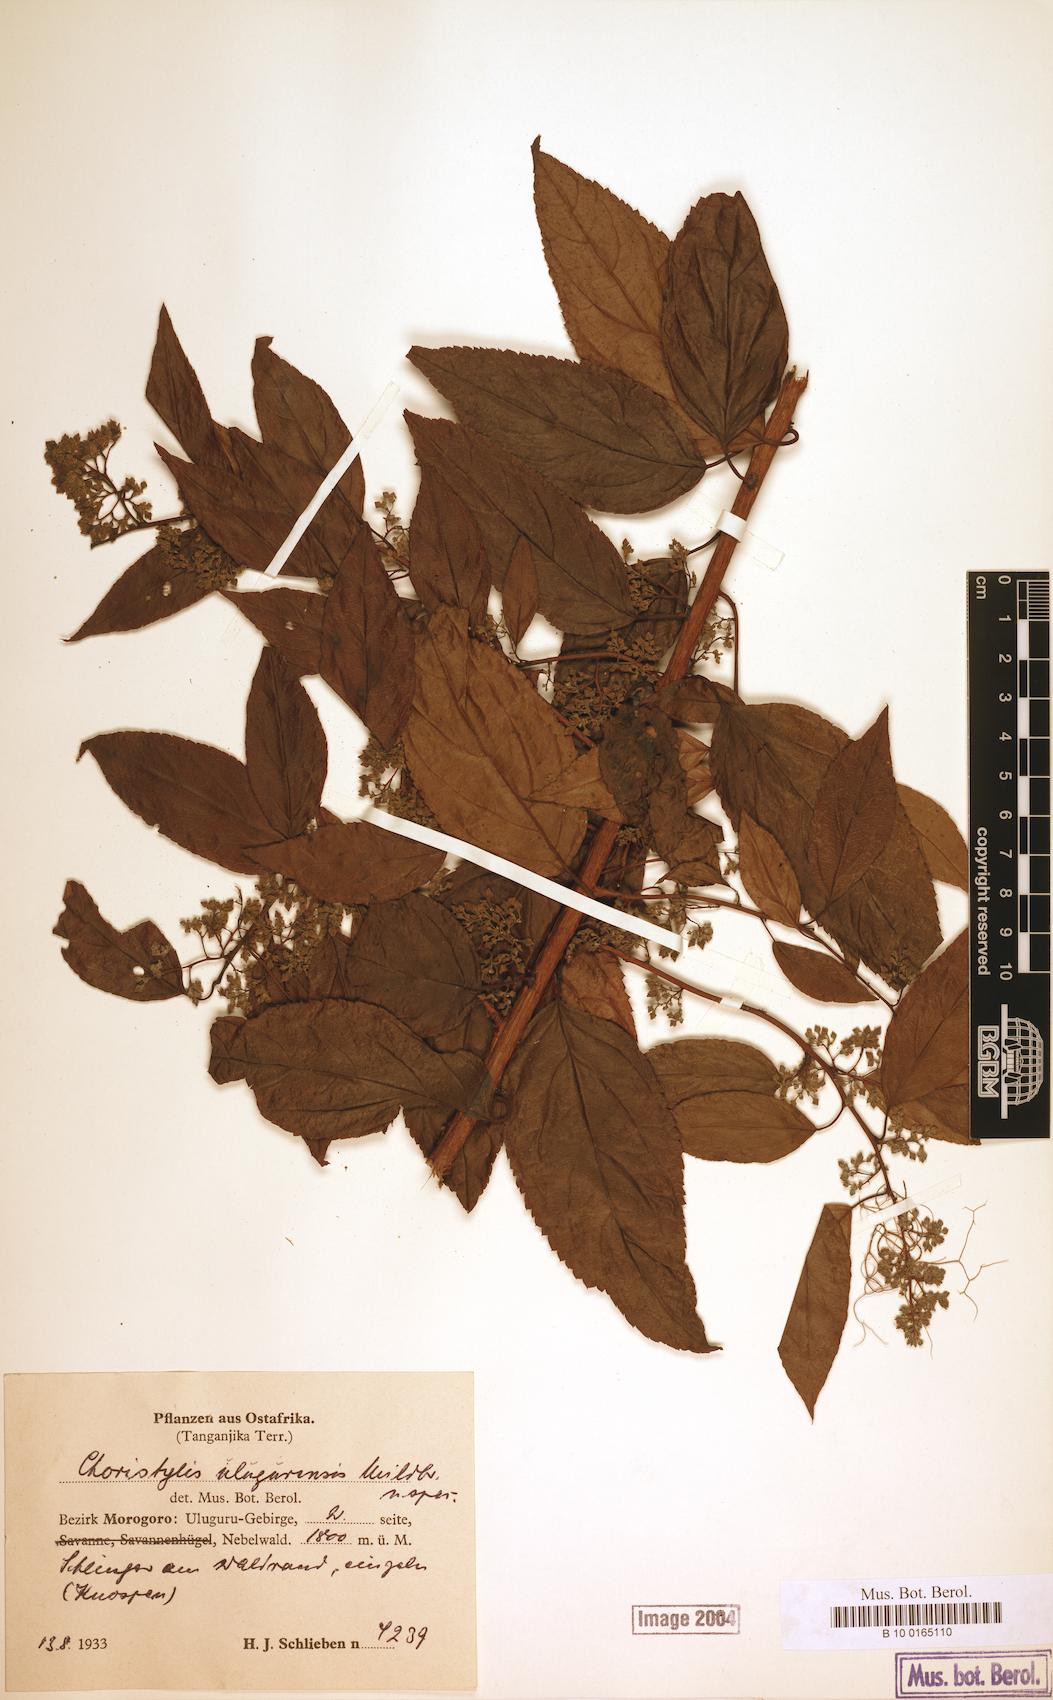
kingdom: Plantae
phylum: Tracheophyta
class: Magnoliopsida
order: Saxifragales
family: Iteaceae
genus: Itea
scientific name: Itea rhamnoides
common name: False dogwood
